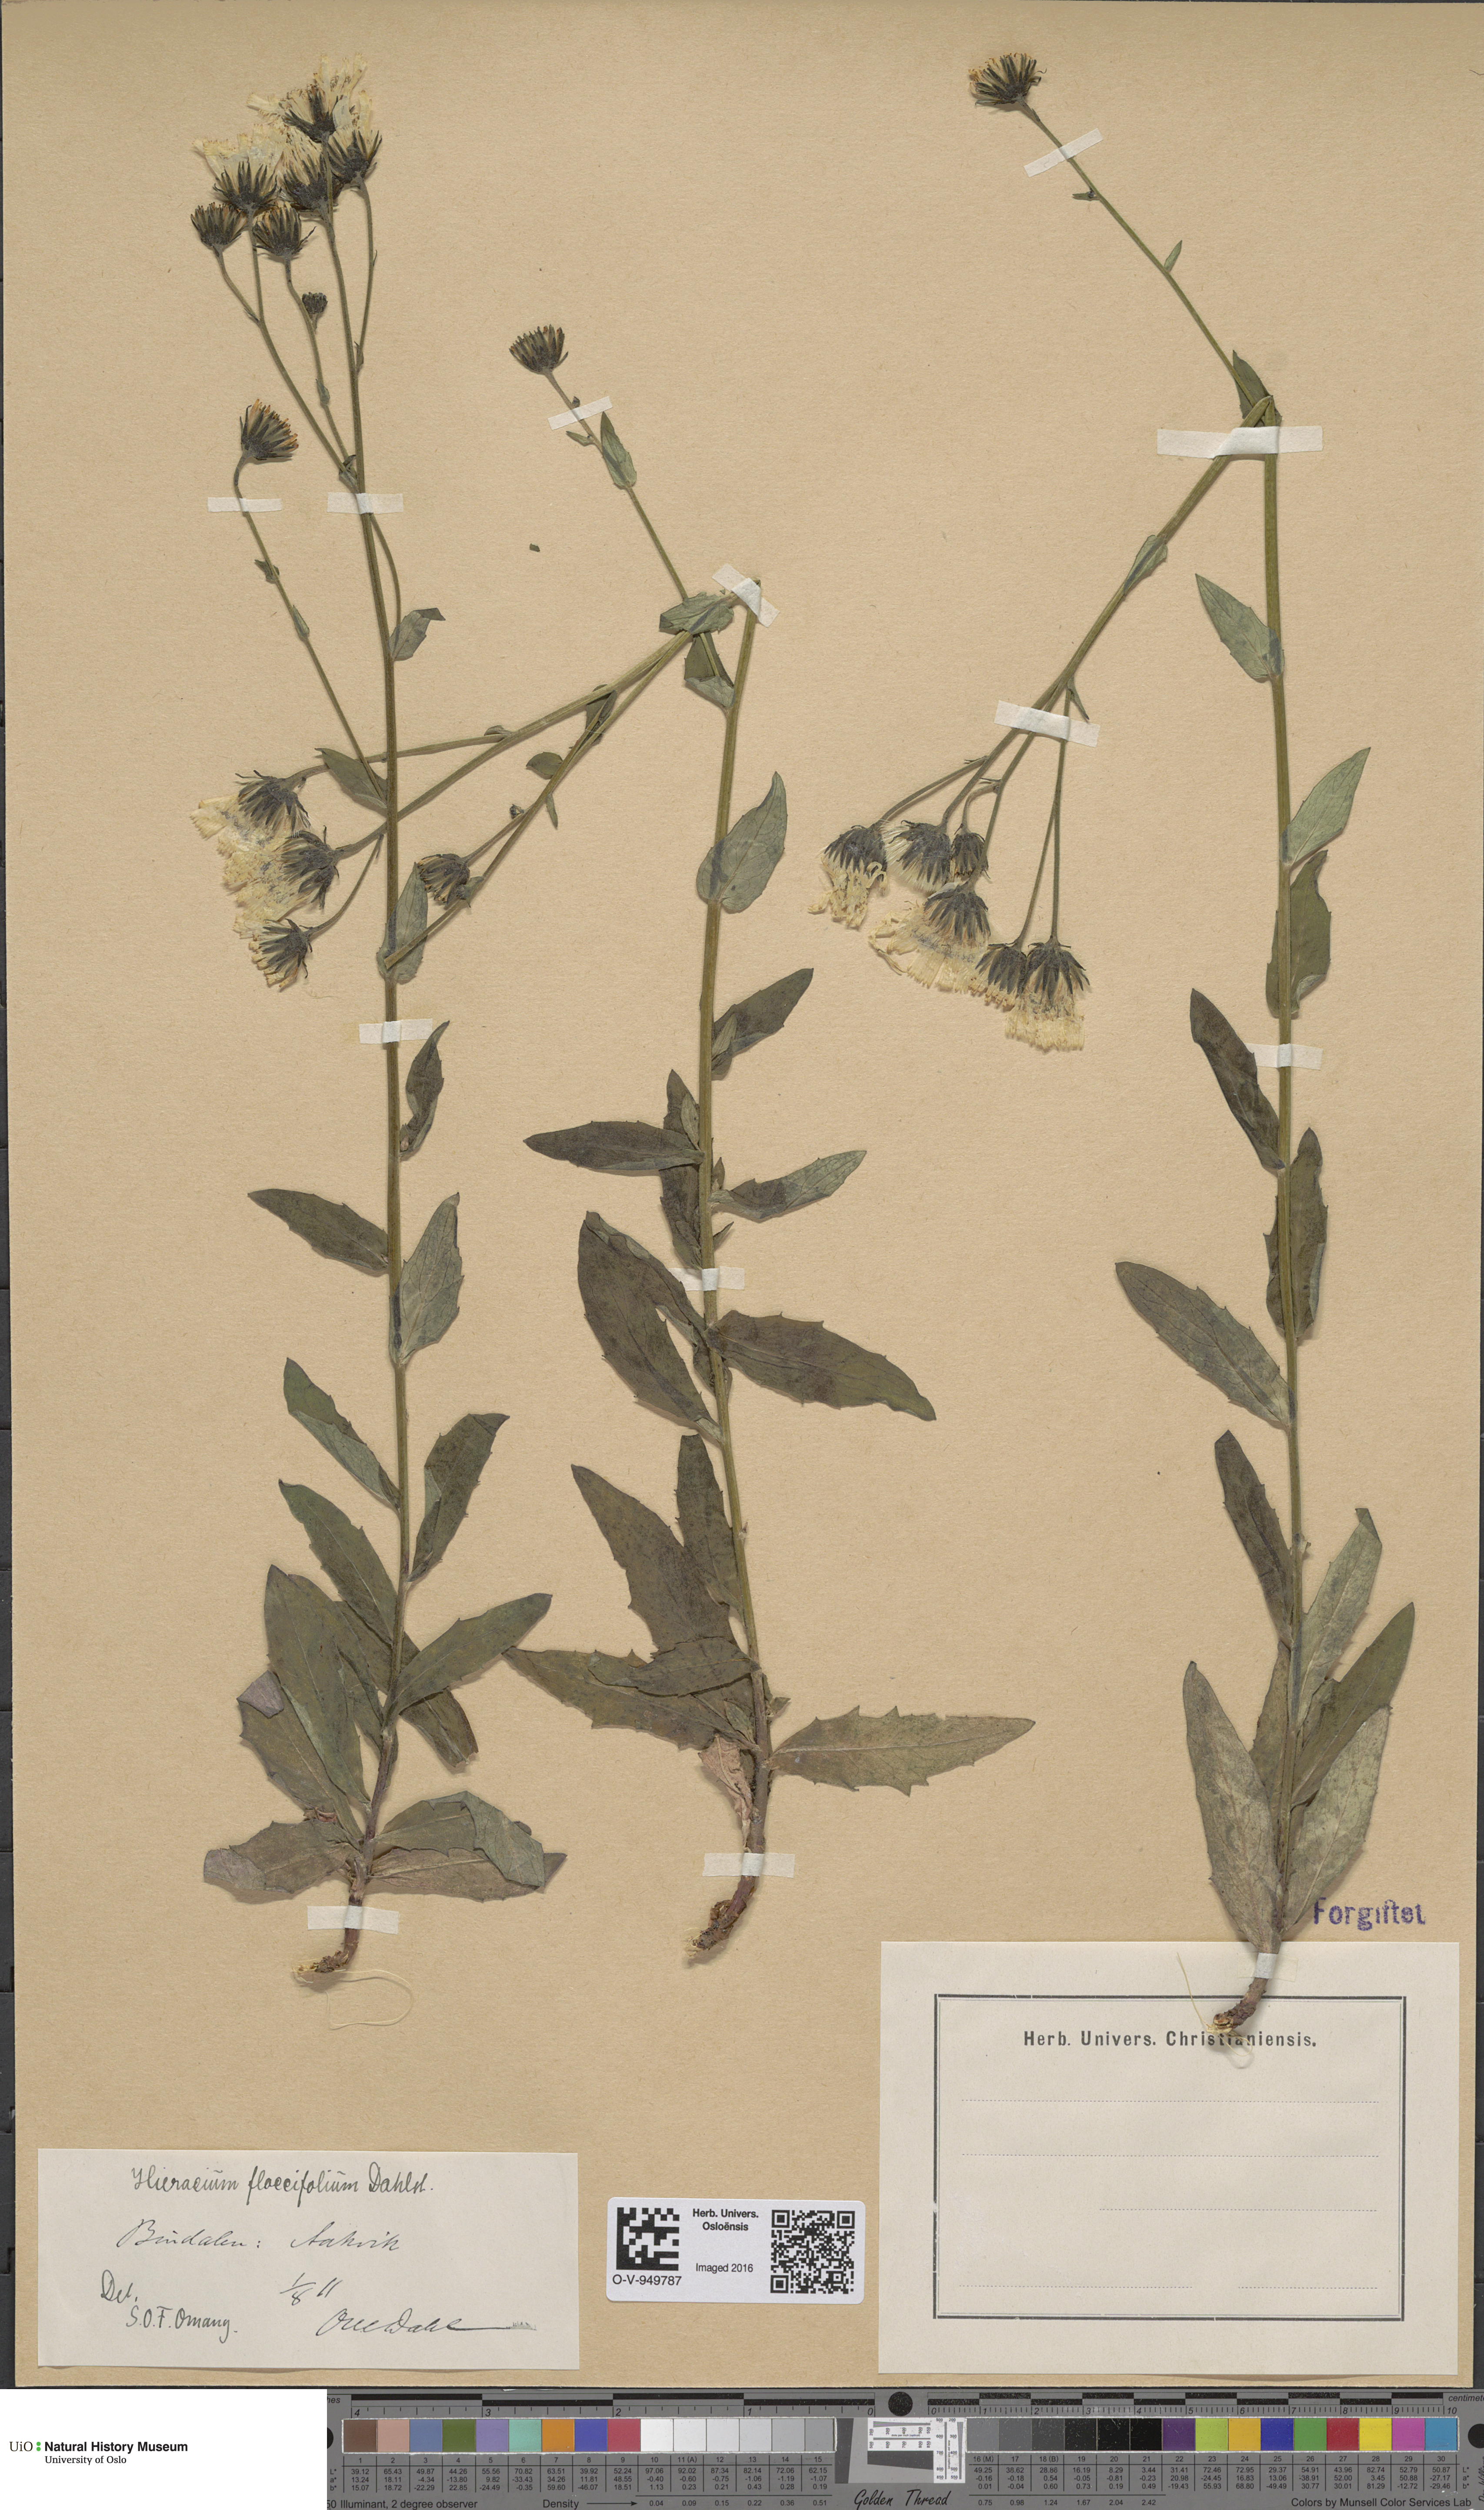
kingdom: Plantae
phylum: Tracheophyta
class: Magnoliopsida
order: Asterales
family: Asteraceae
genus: Hieracium
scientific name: Hieracium
